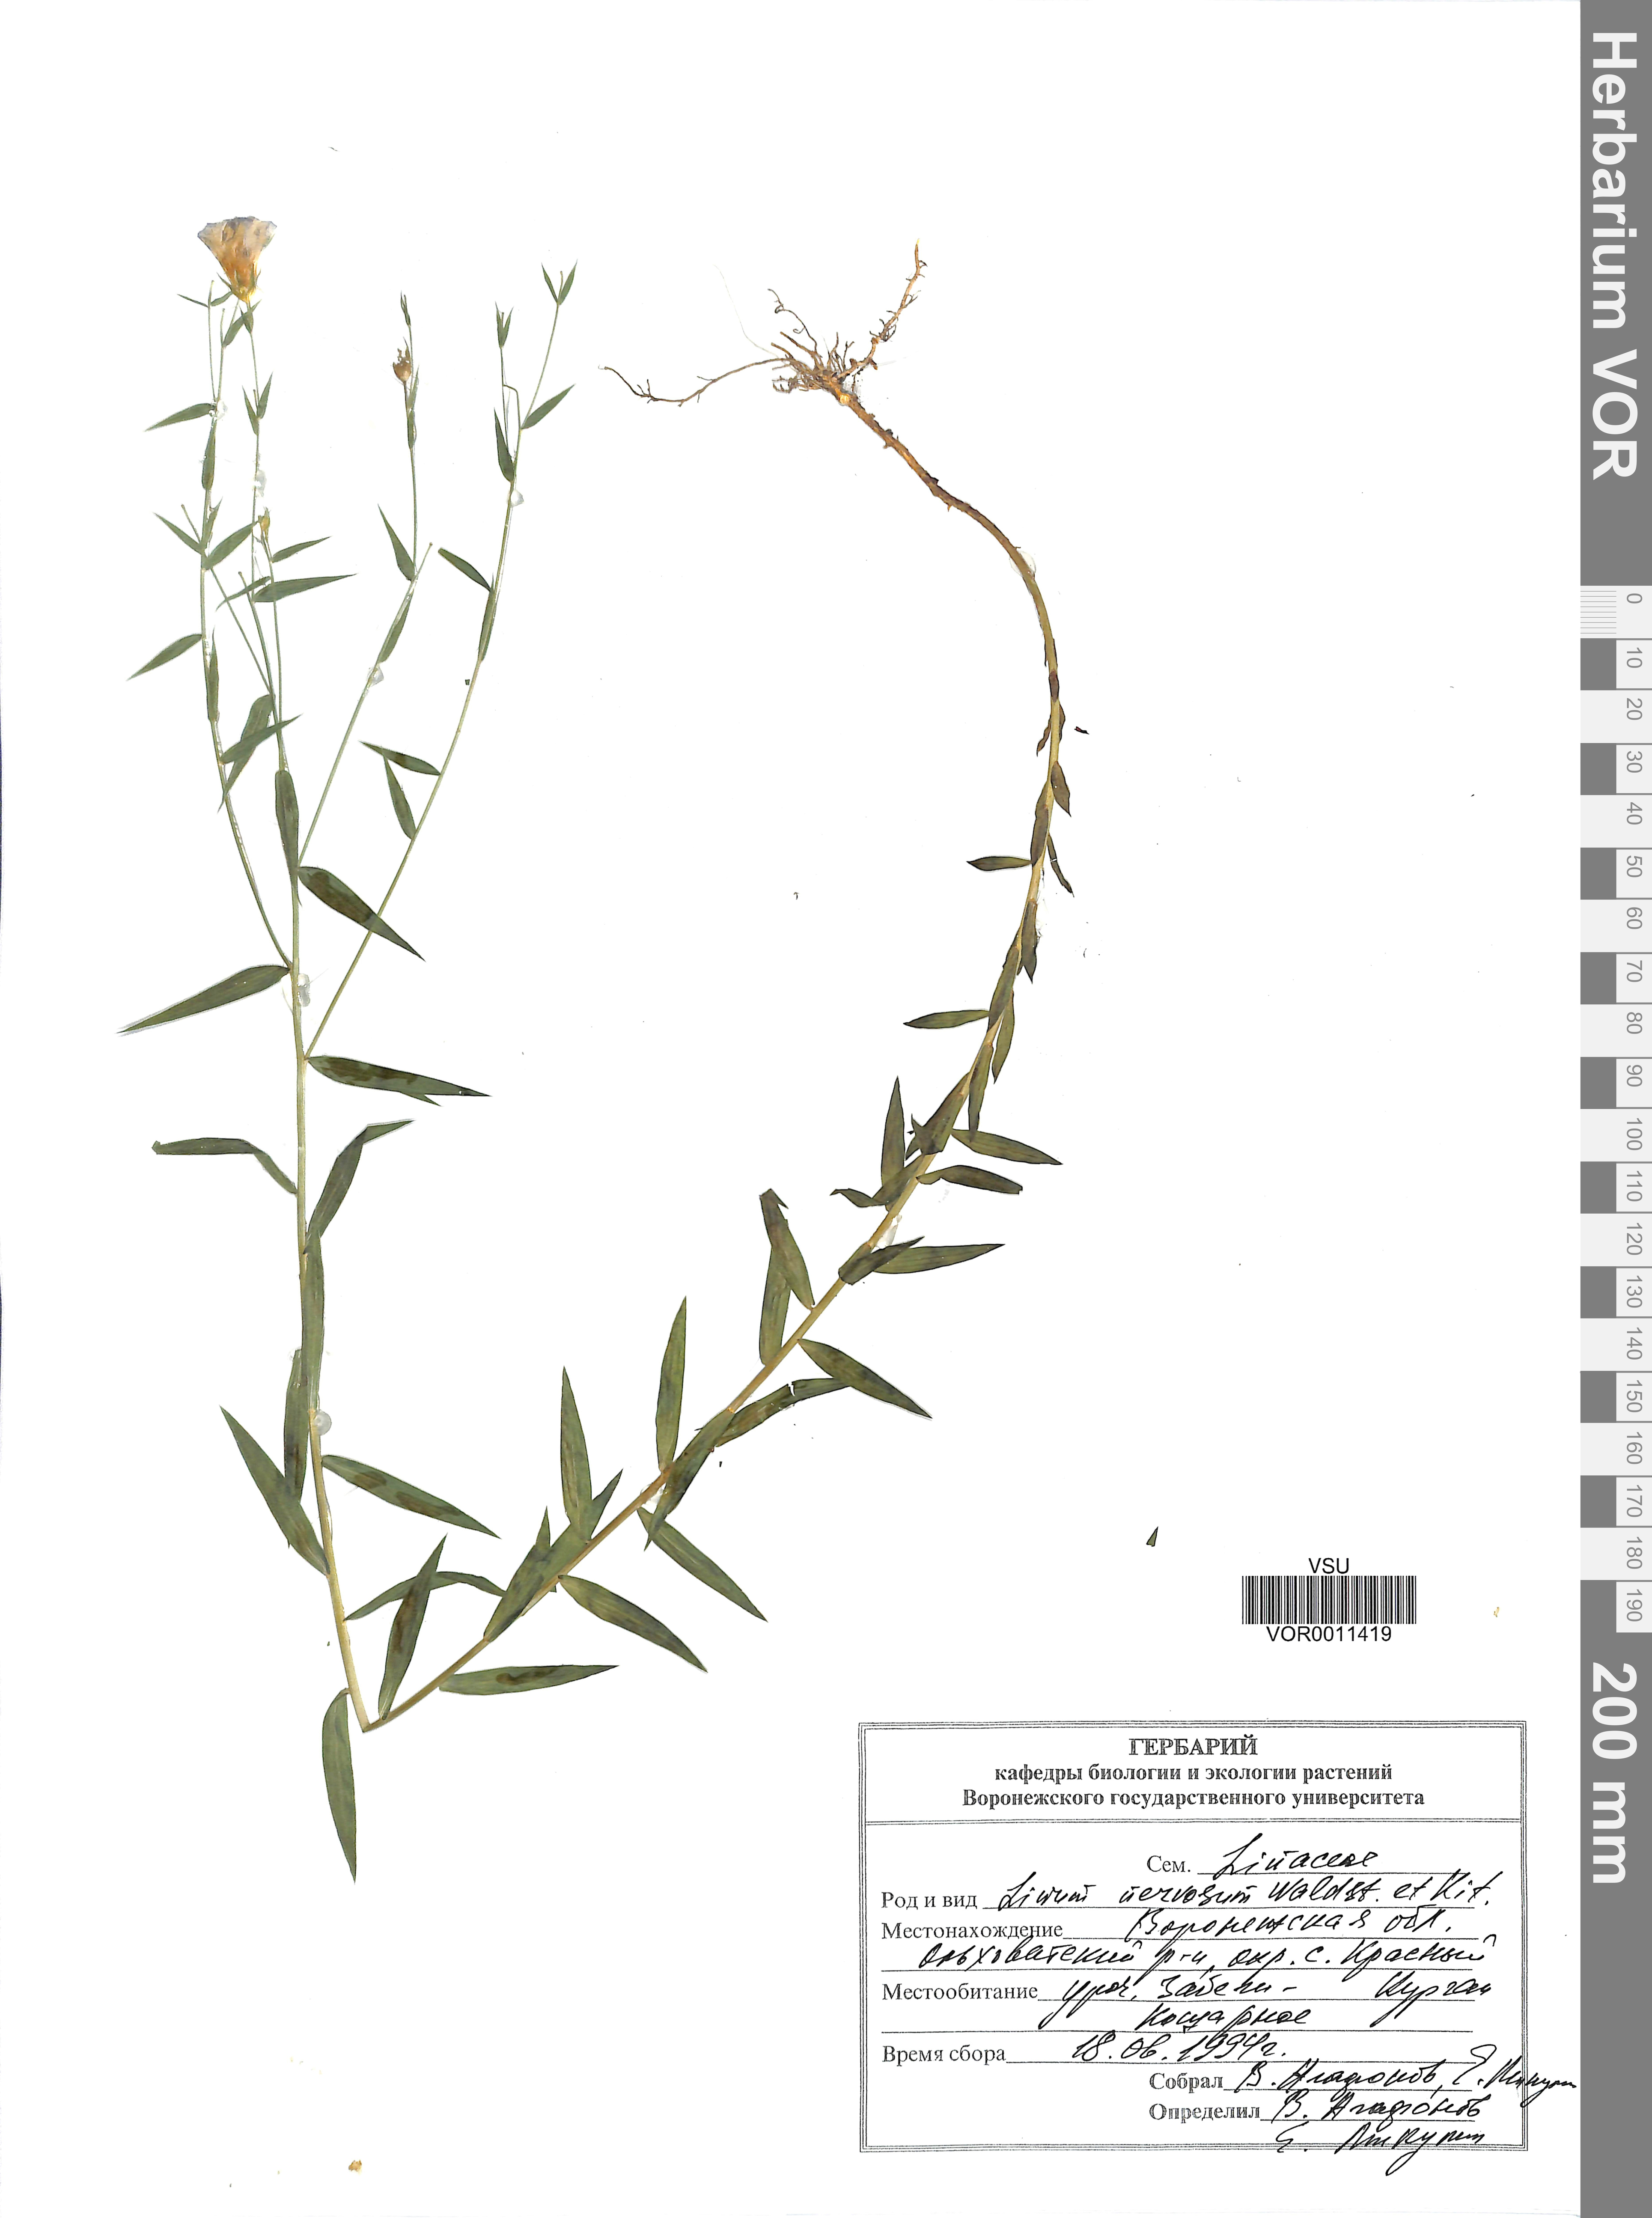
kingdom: Plantae
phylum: Tracheophyta
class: Magnoliopsida
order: Malpighiales
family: Linaceae
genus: Linum
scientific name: Linum nervosum
